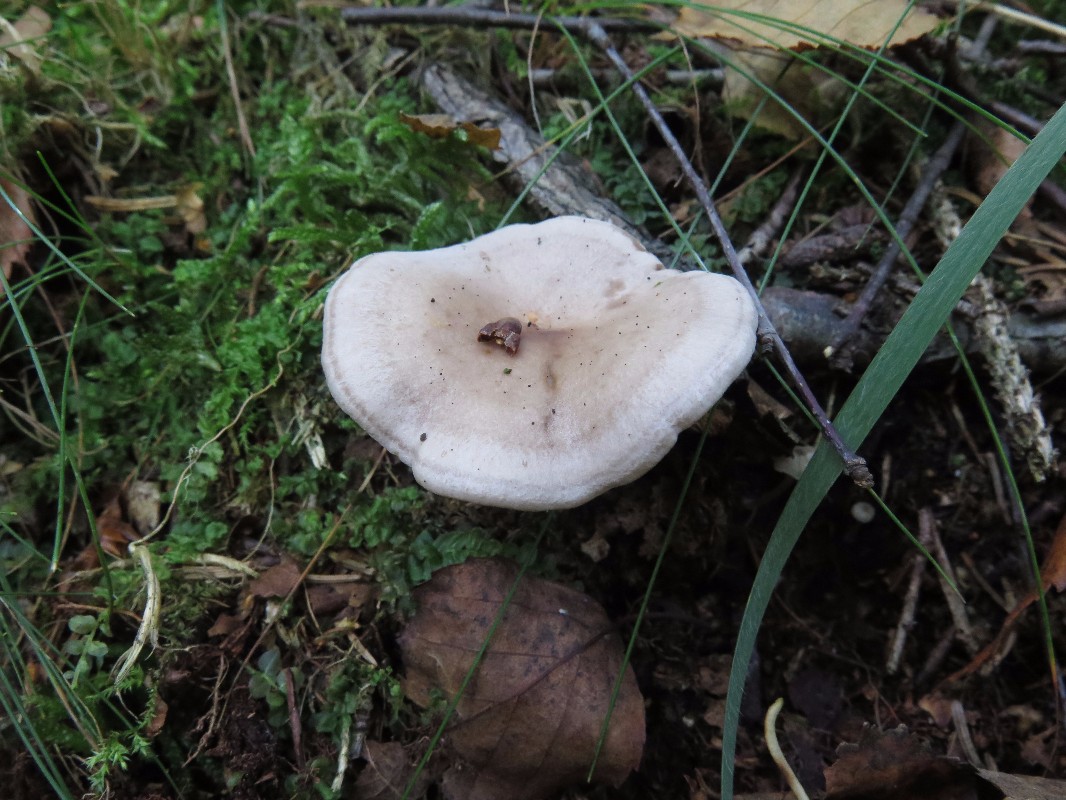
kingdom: Fungi
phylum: Basidiomycota
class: Agaricomycetes
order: Russulales
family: Russulaceae
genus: Lactarius
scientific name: Lactarius uvidus
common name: violetkødet mælkehat
